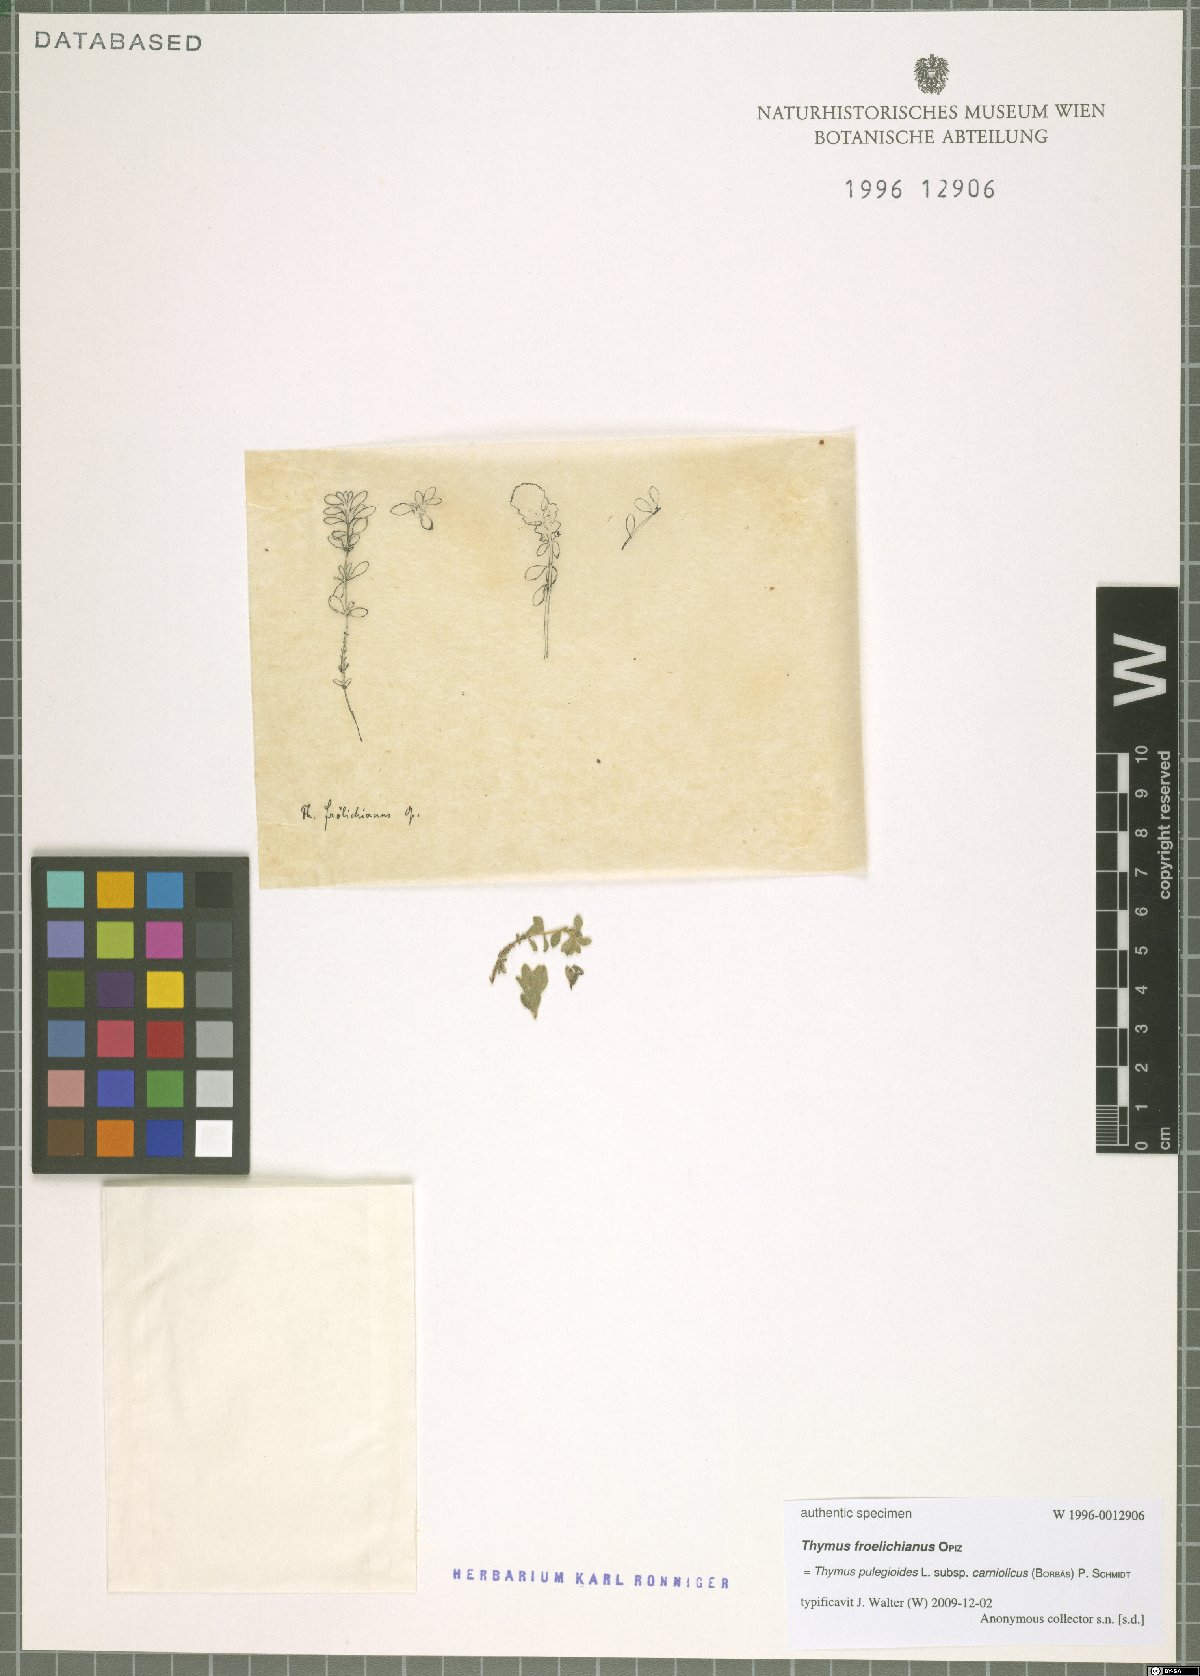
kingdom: Plantae
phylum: Tracheophyta
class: Magnoliopsida
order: Lamiales
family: Lamiaceae
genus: Thymus
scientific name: Thymus pannonicus
